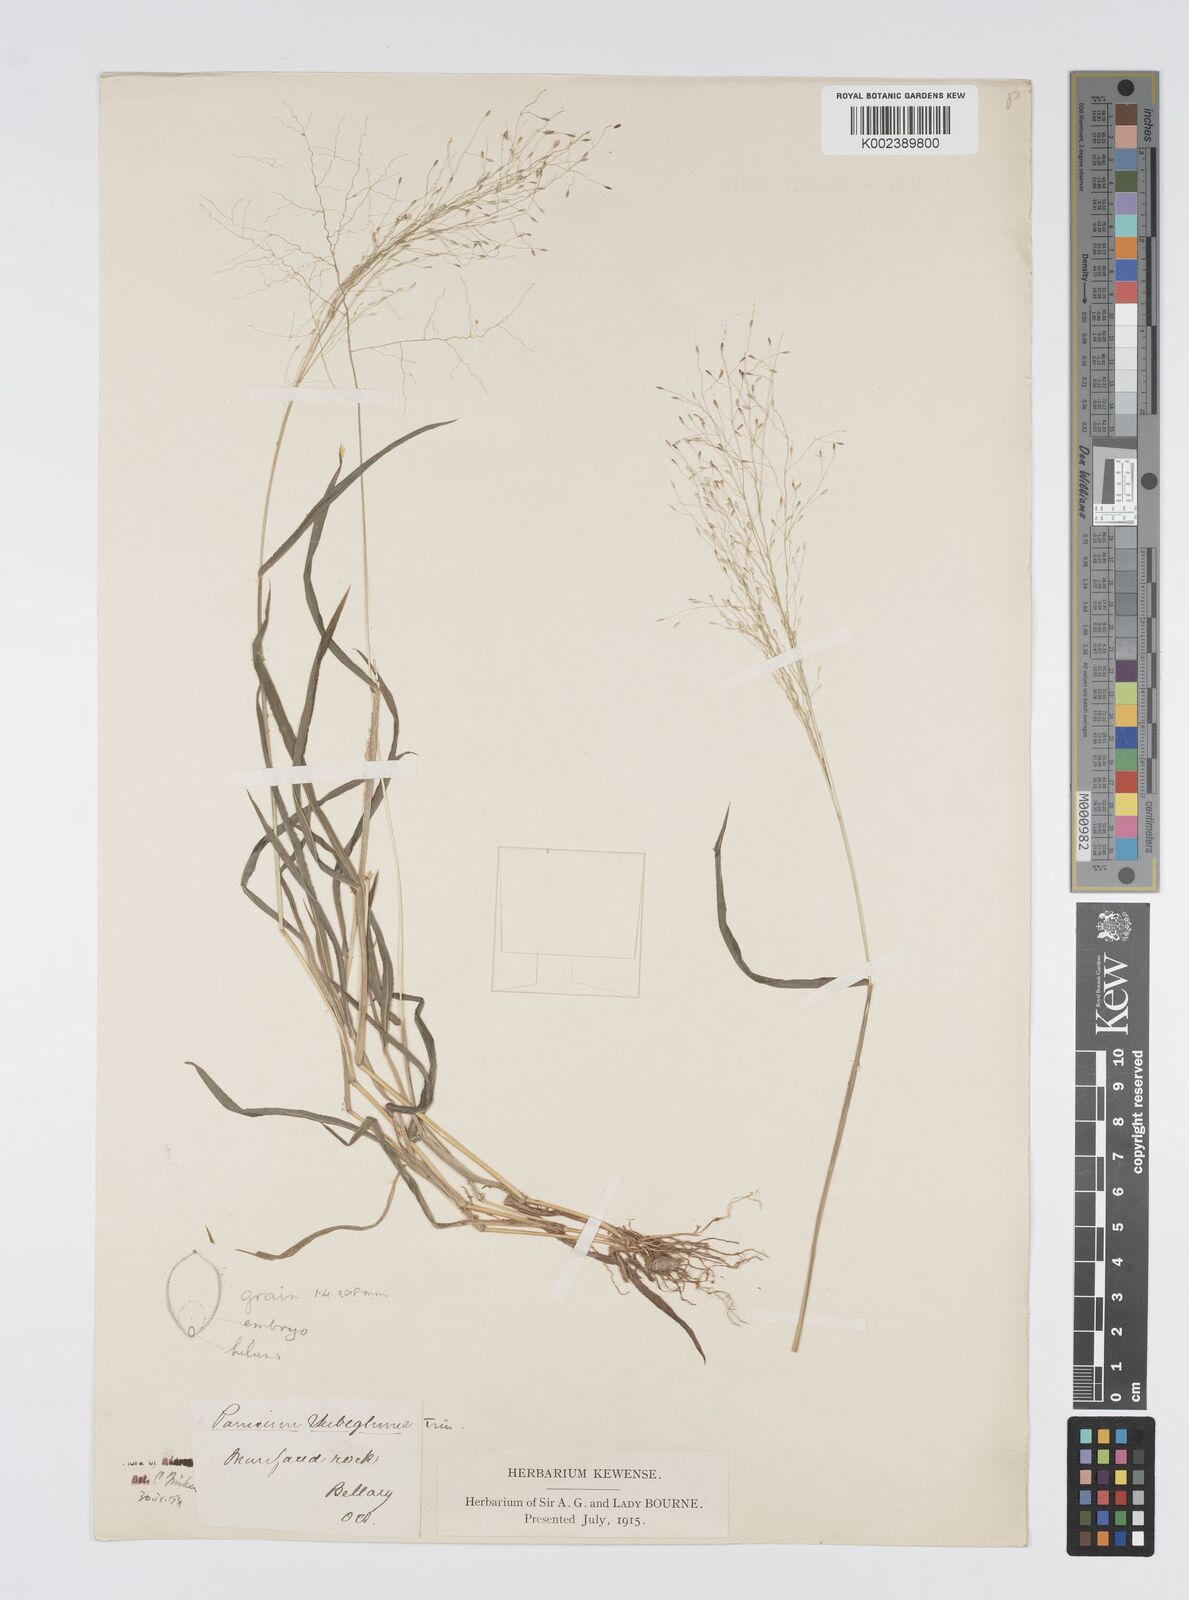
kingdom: Plantae
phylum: Tracheophyta
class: Liliopsida
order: Poales
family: Poaceae
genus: Digitaria
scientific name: Digitaria tomentosa
